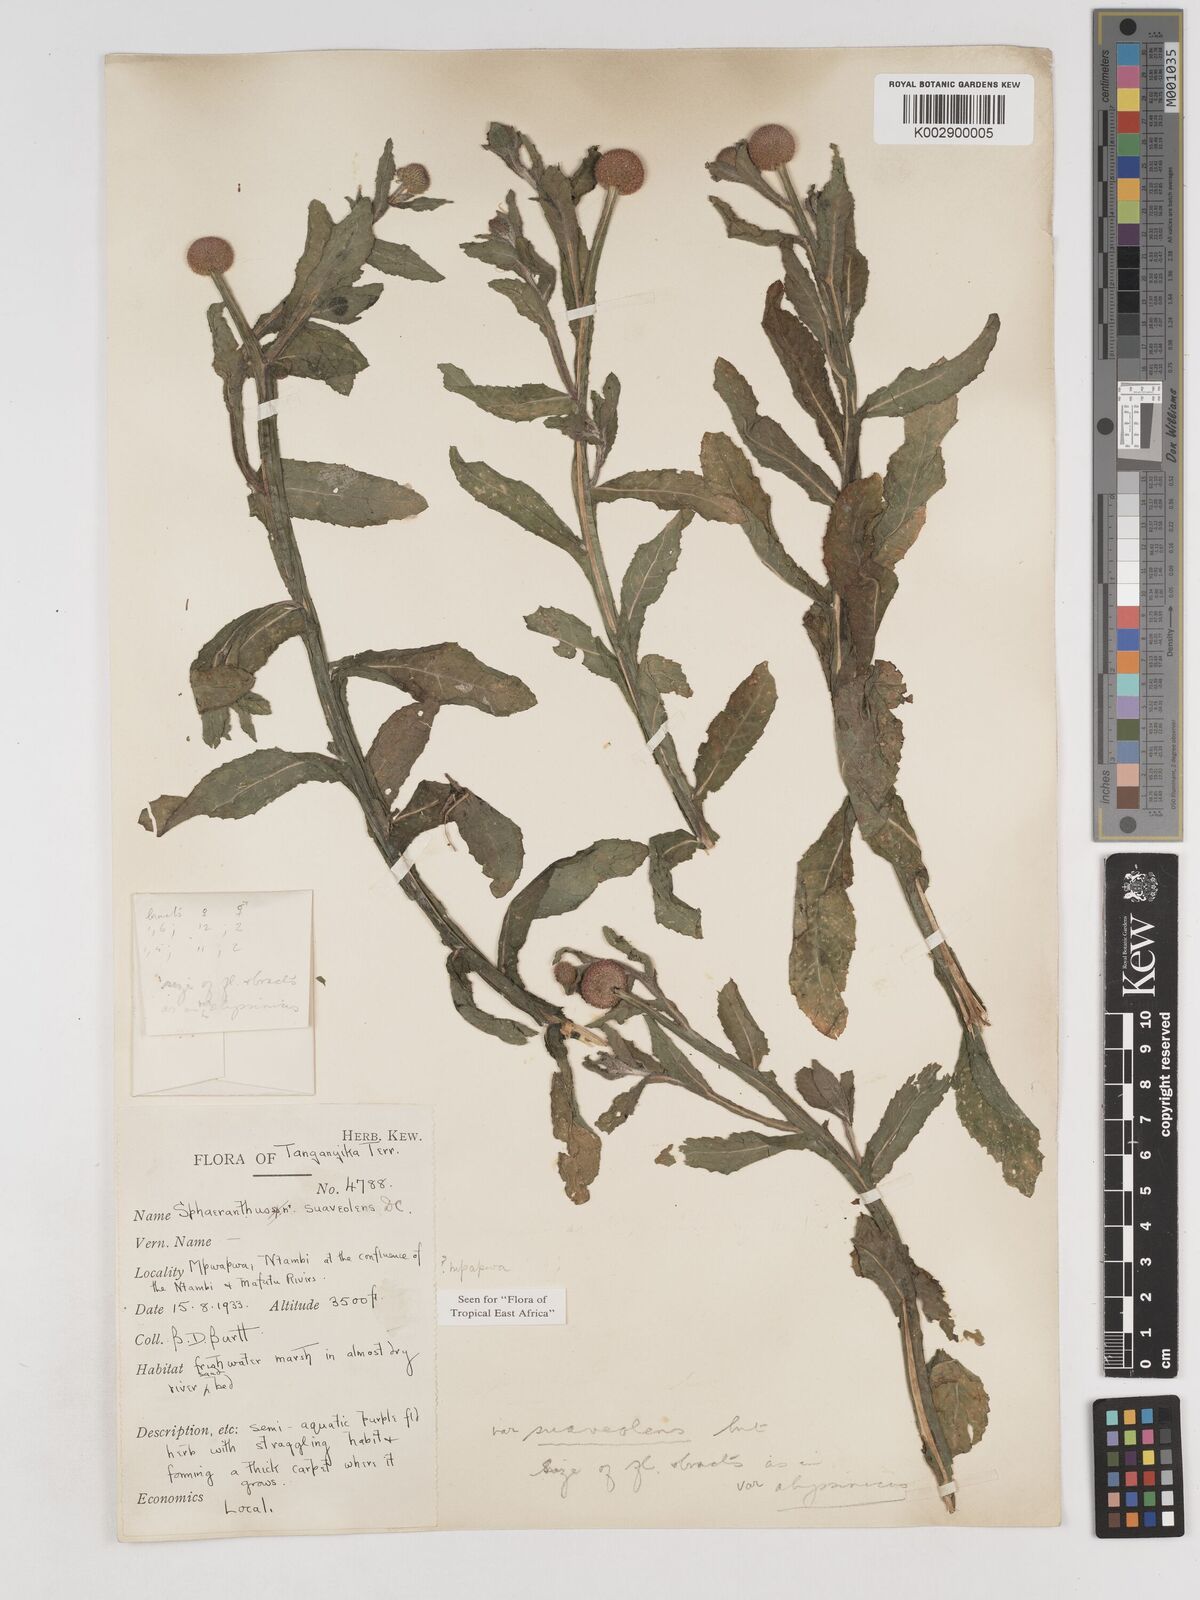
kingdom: Plantae
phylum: Tracheophyta
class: Magnoliopsida
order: Asterales
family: Asteraceae
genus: Sphaeranthus
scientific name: Sphaeranthus suaveolens
